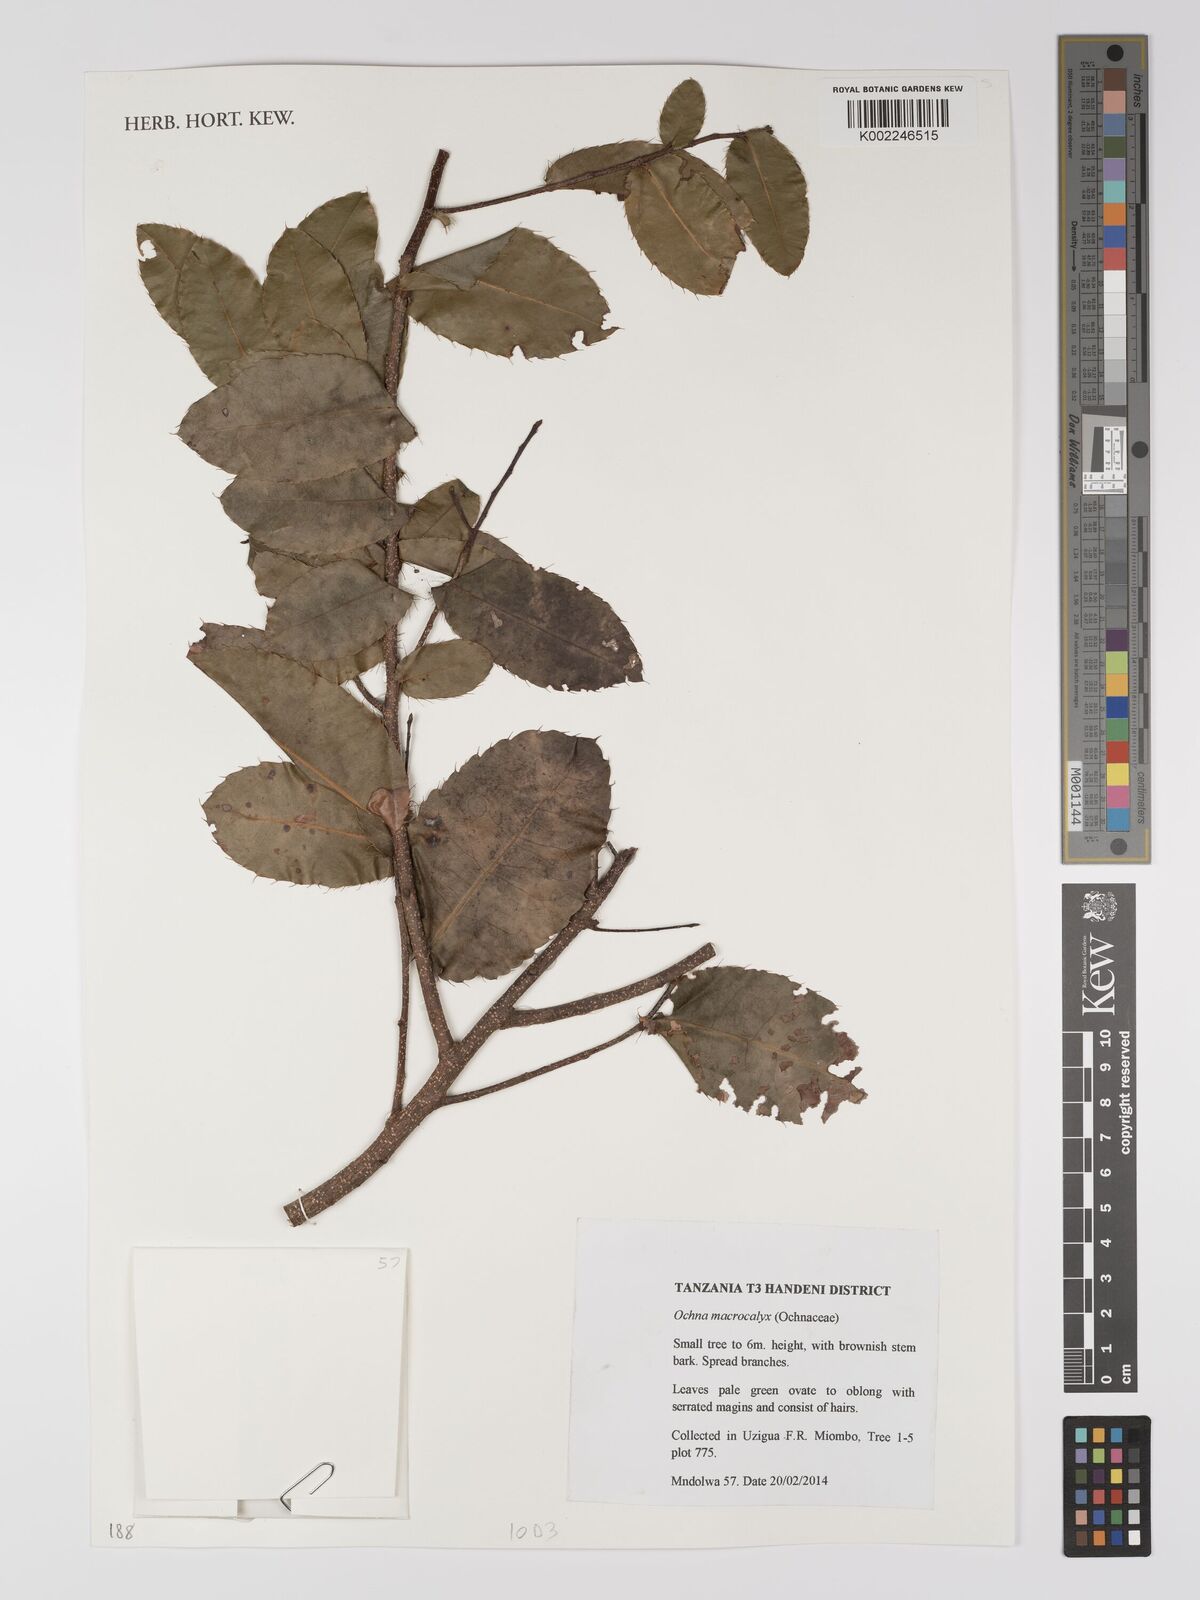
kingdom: Plantae
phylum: Tracheophyta
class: Magnoliopsida
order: Malpighiales
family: Ochnaceae
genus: Ochna
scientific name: Ochna macrocalyx
